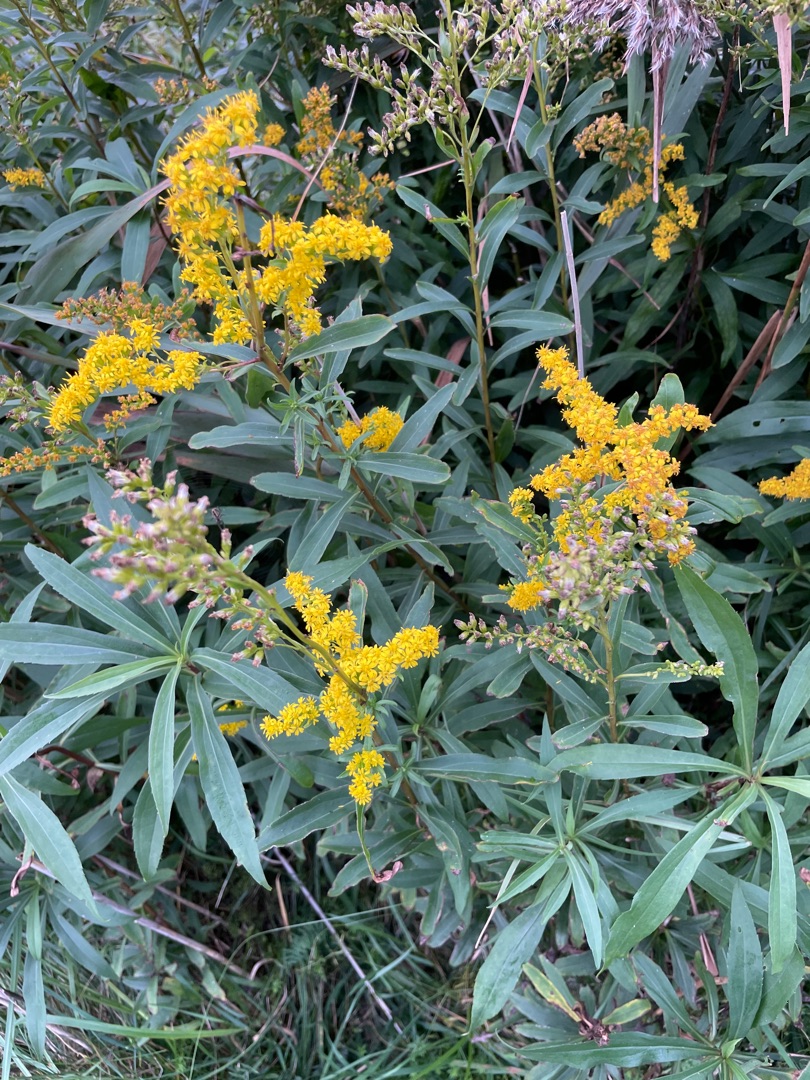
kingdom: Plantae
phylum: Tracheophyta
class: Magnoliopsida
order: Asterales
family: Asteraceae
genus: Solidago
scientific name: Solidago gigantea
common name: Sildig gyldenris
